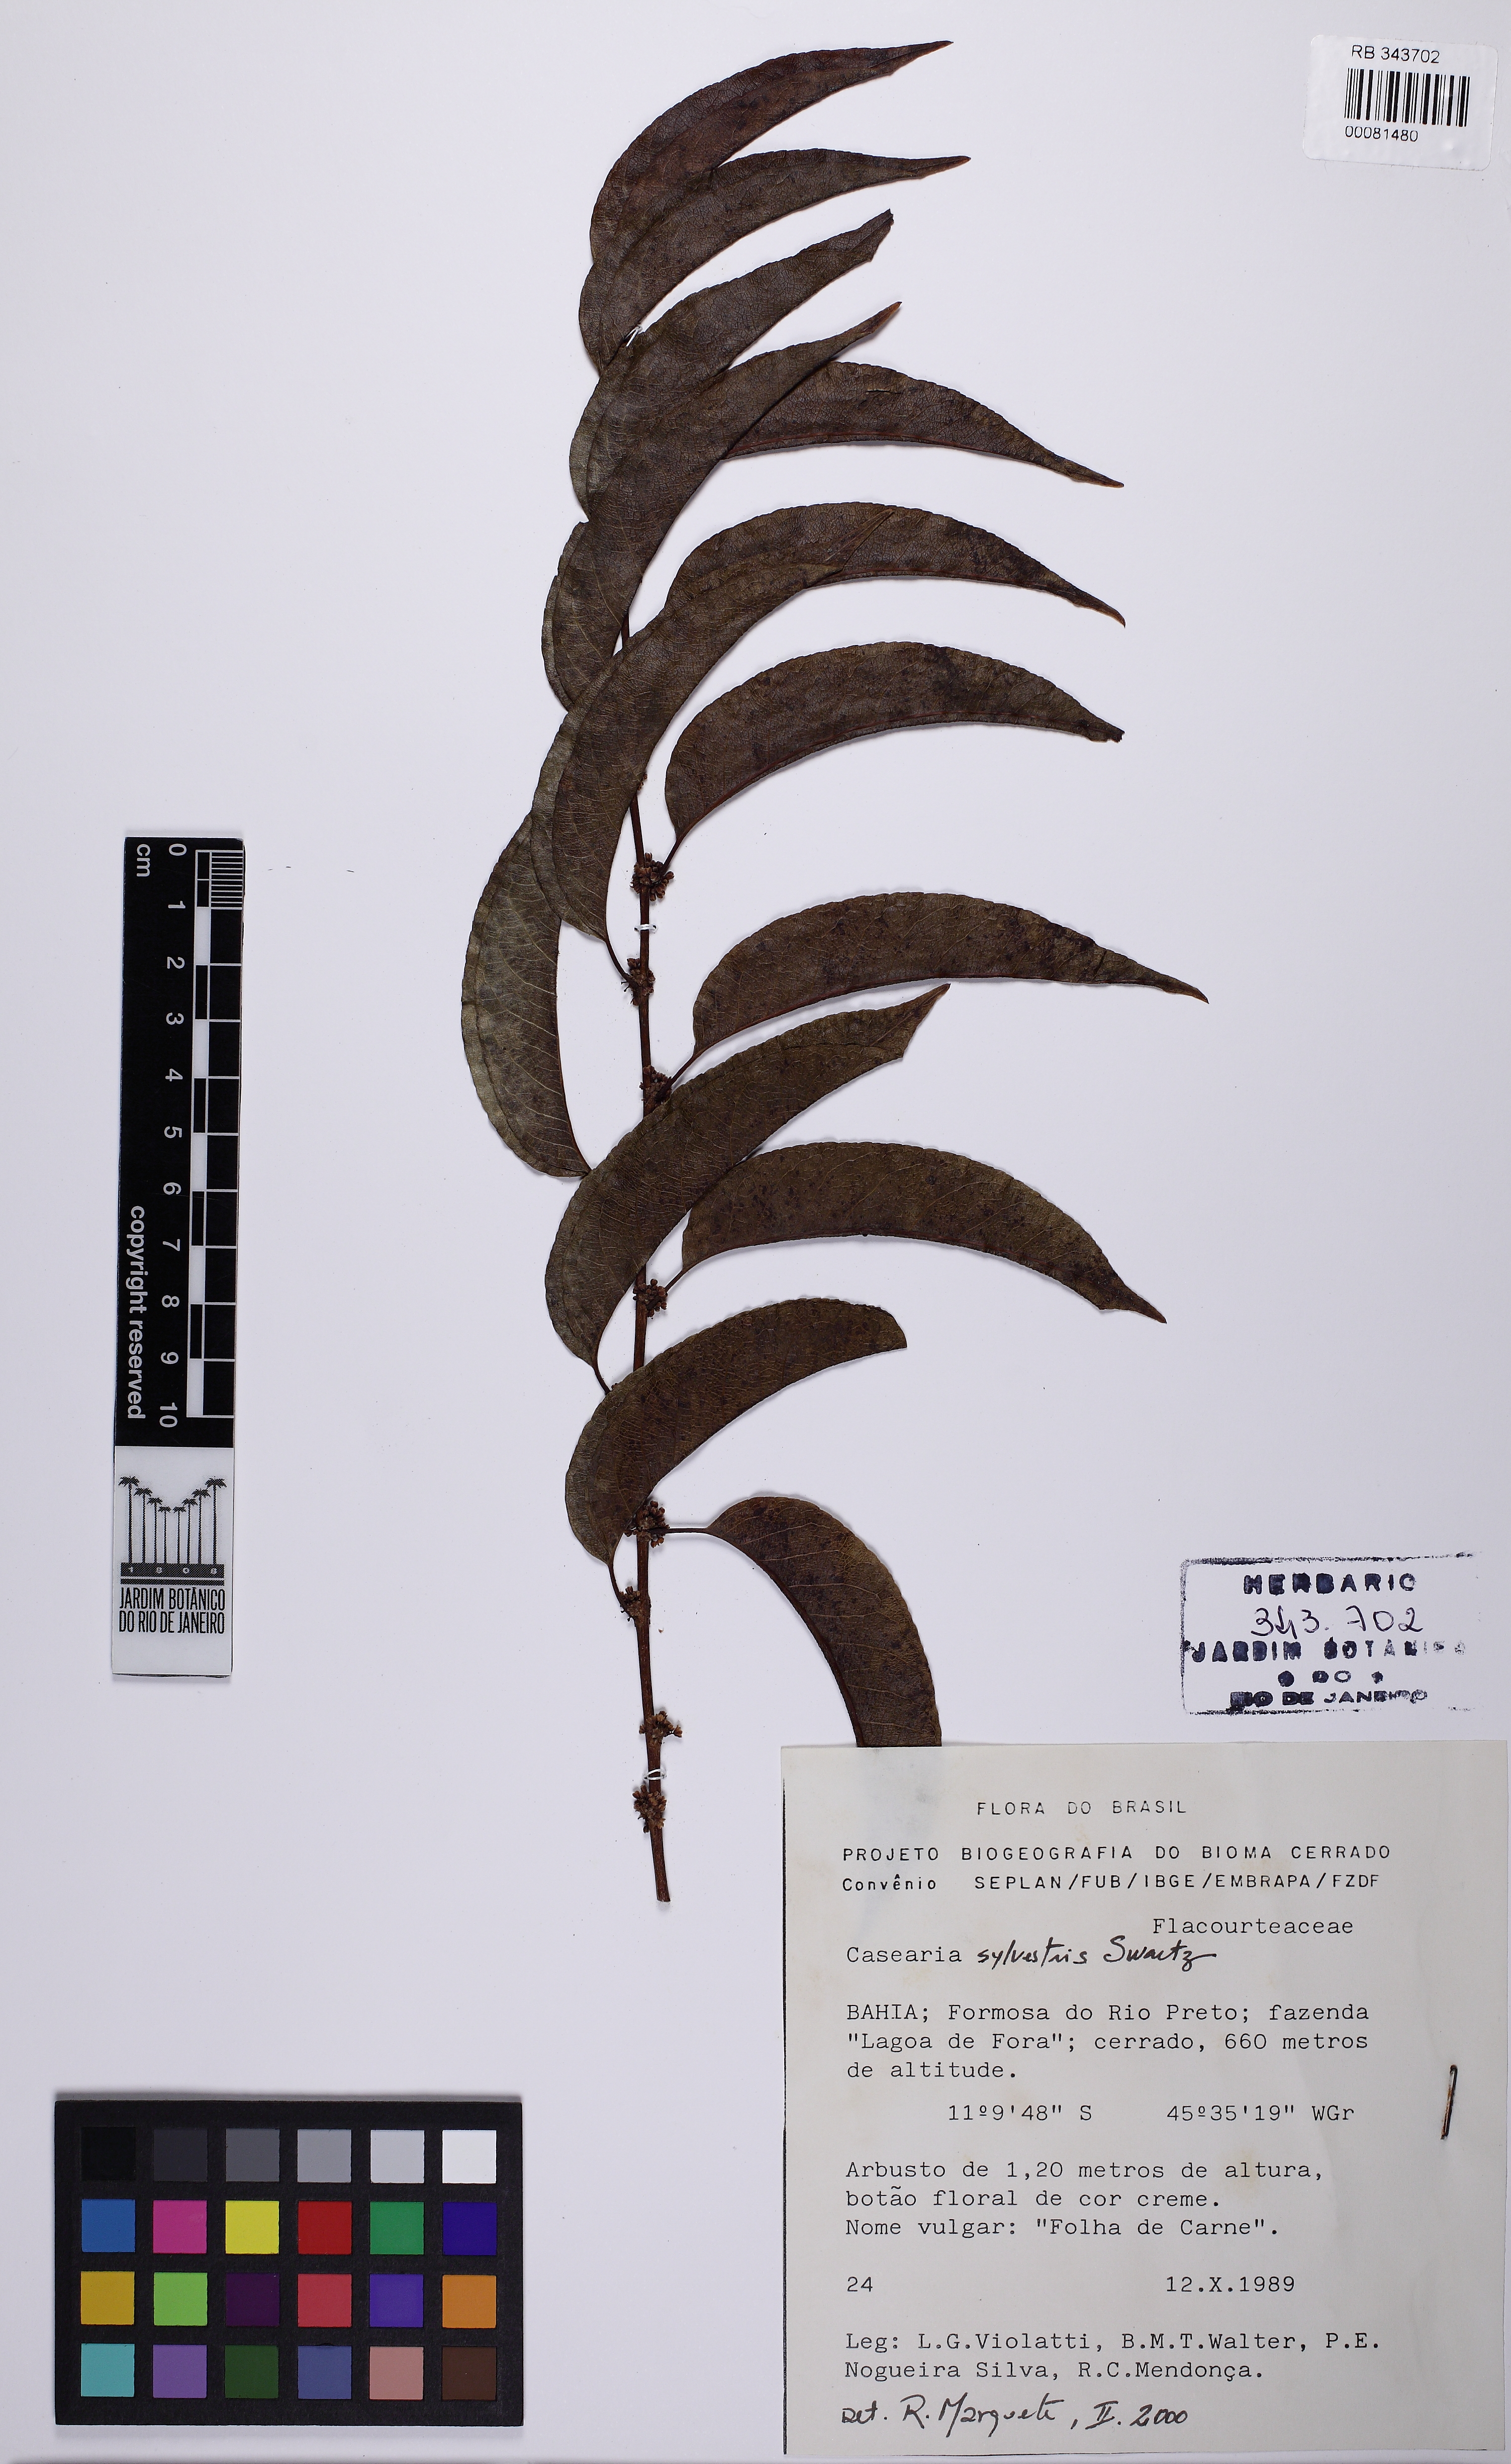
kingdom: Plantae
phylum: Tracheophyta
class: Magnoliopsida
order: Malpighiales
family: Salicaceae
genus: Casearia
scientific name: Casearia sylvestris
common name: Wild sage
